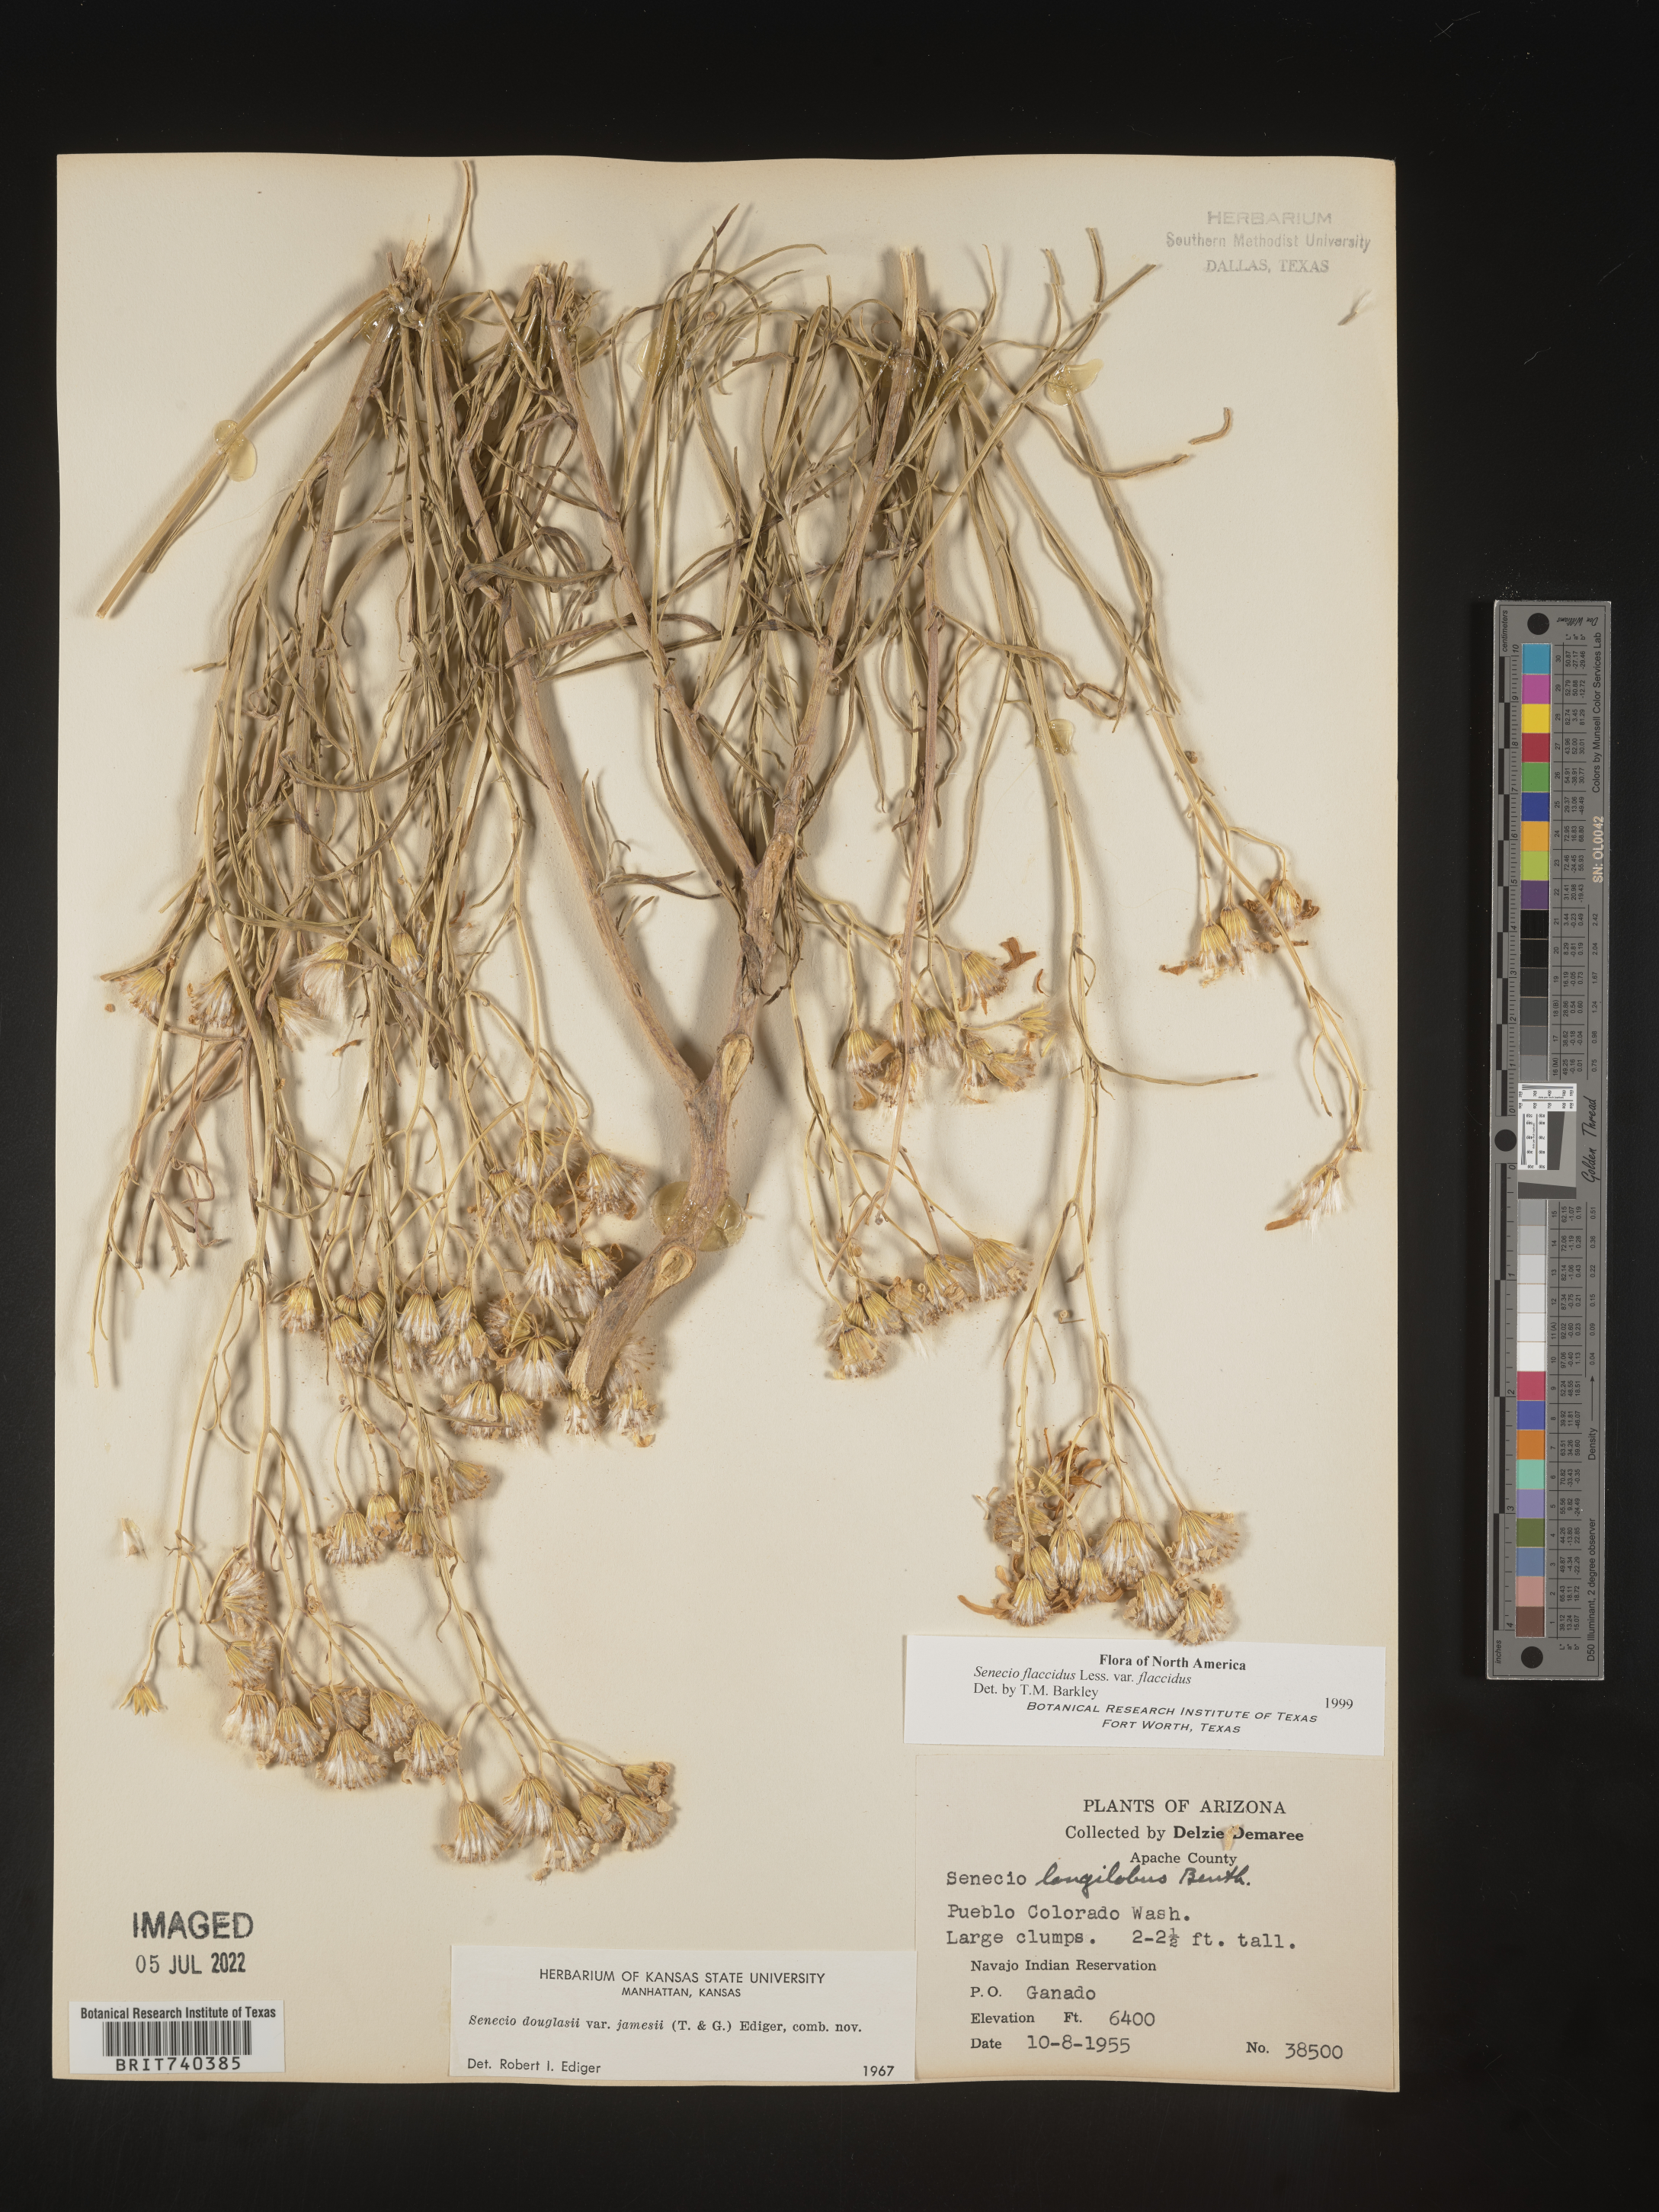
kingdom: Plantae
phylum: Tracheophyta
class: Magnoliopsida
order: Asterales
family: Asteraceae
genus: Senecio
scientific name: Senecio flaccidus
